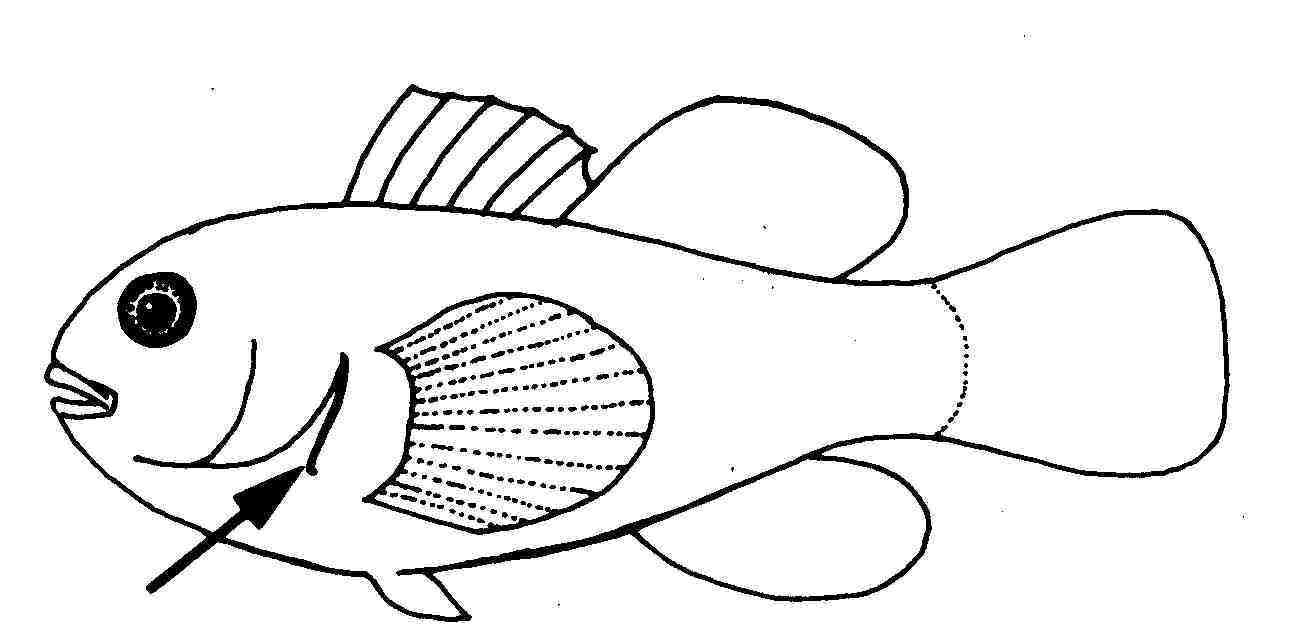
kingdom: Animalia
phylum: Chordata
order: Perciformes
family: Gobiidae
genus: Gobiodon
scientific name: Gobiodon
